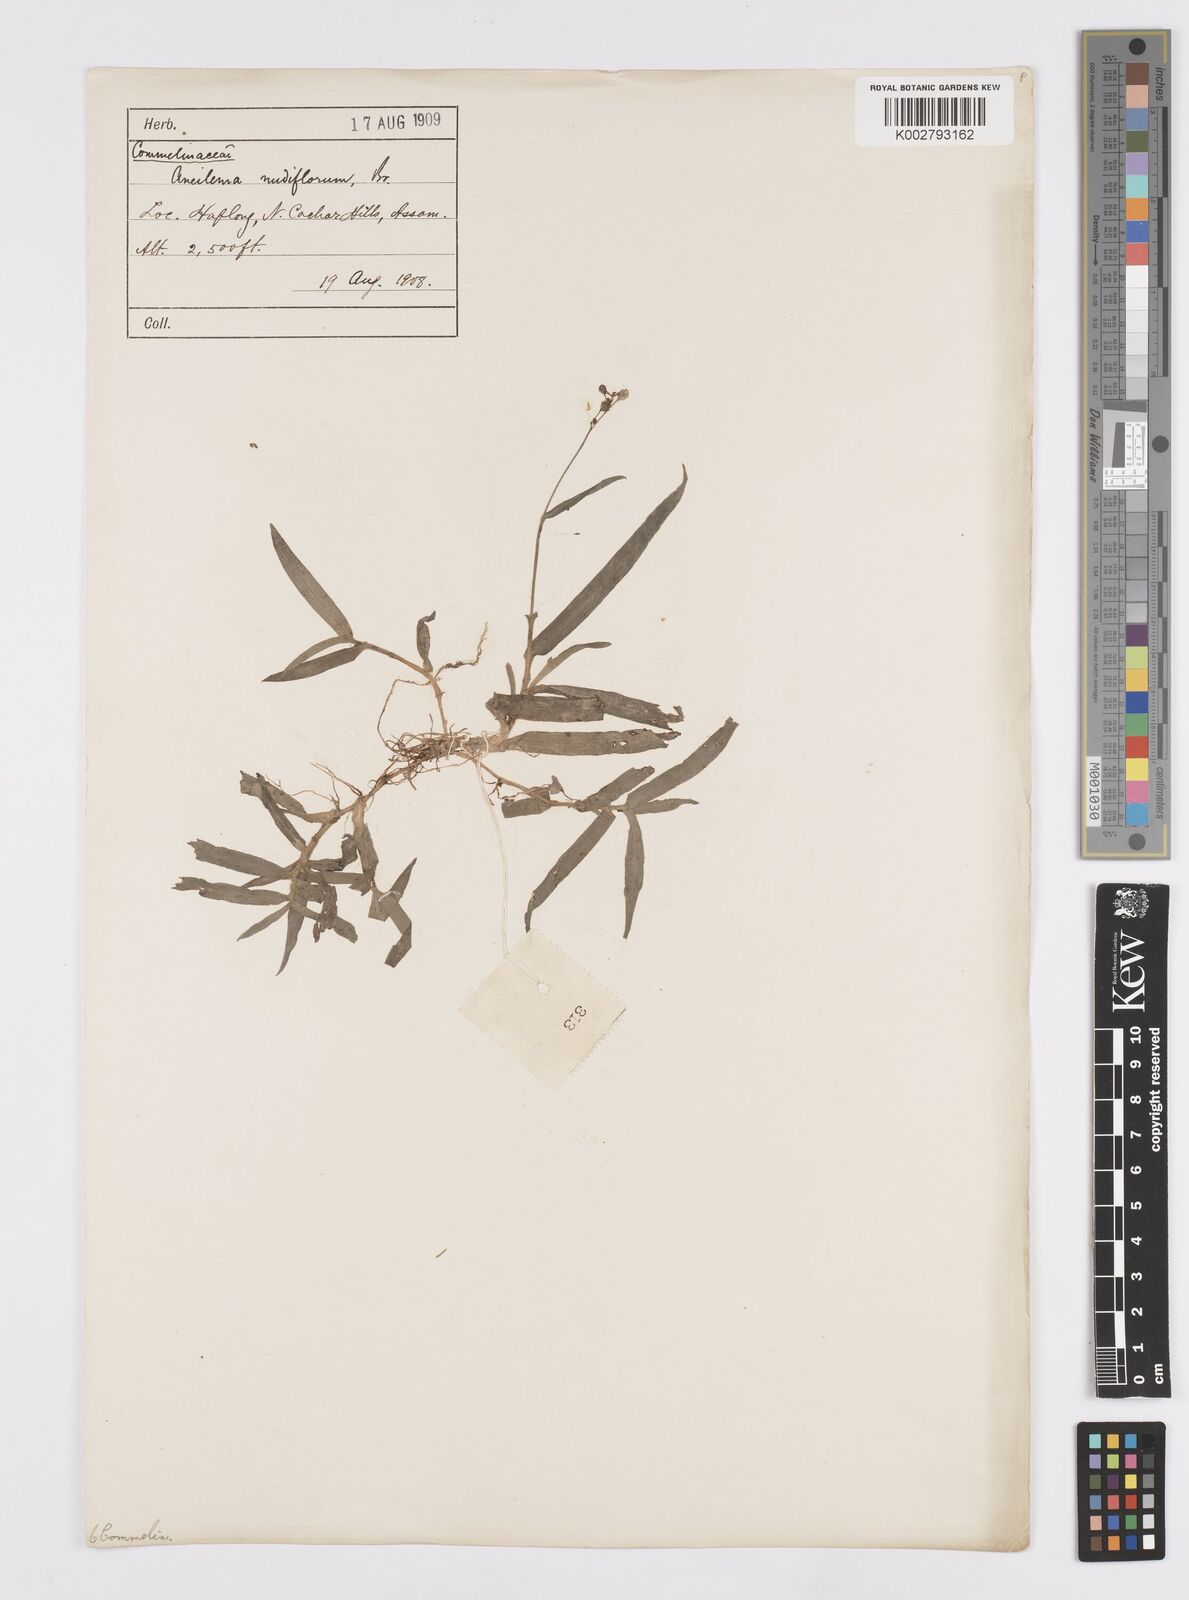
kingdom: Plantae
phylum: Tracheophyta
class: Liliopsida
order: Commelinales
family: Commelinaceae
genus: Murdannia
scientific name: Murdannia
